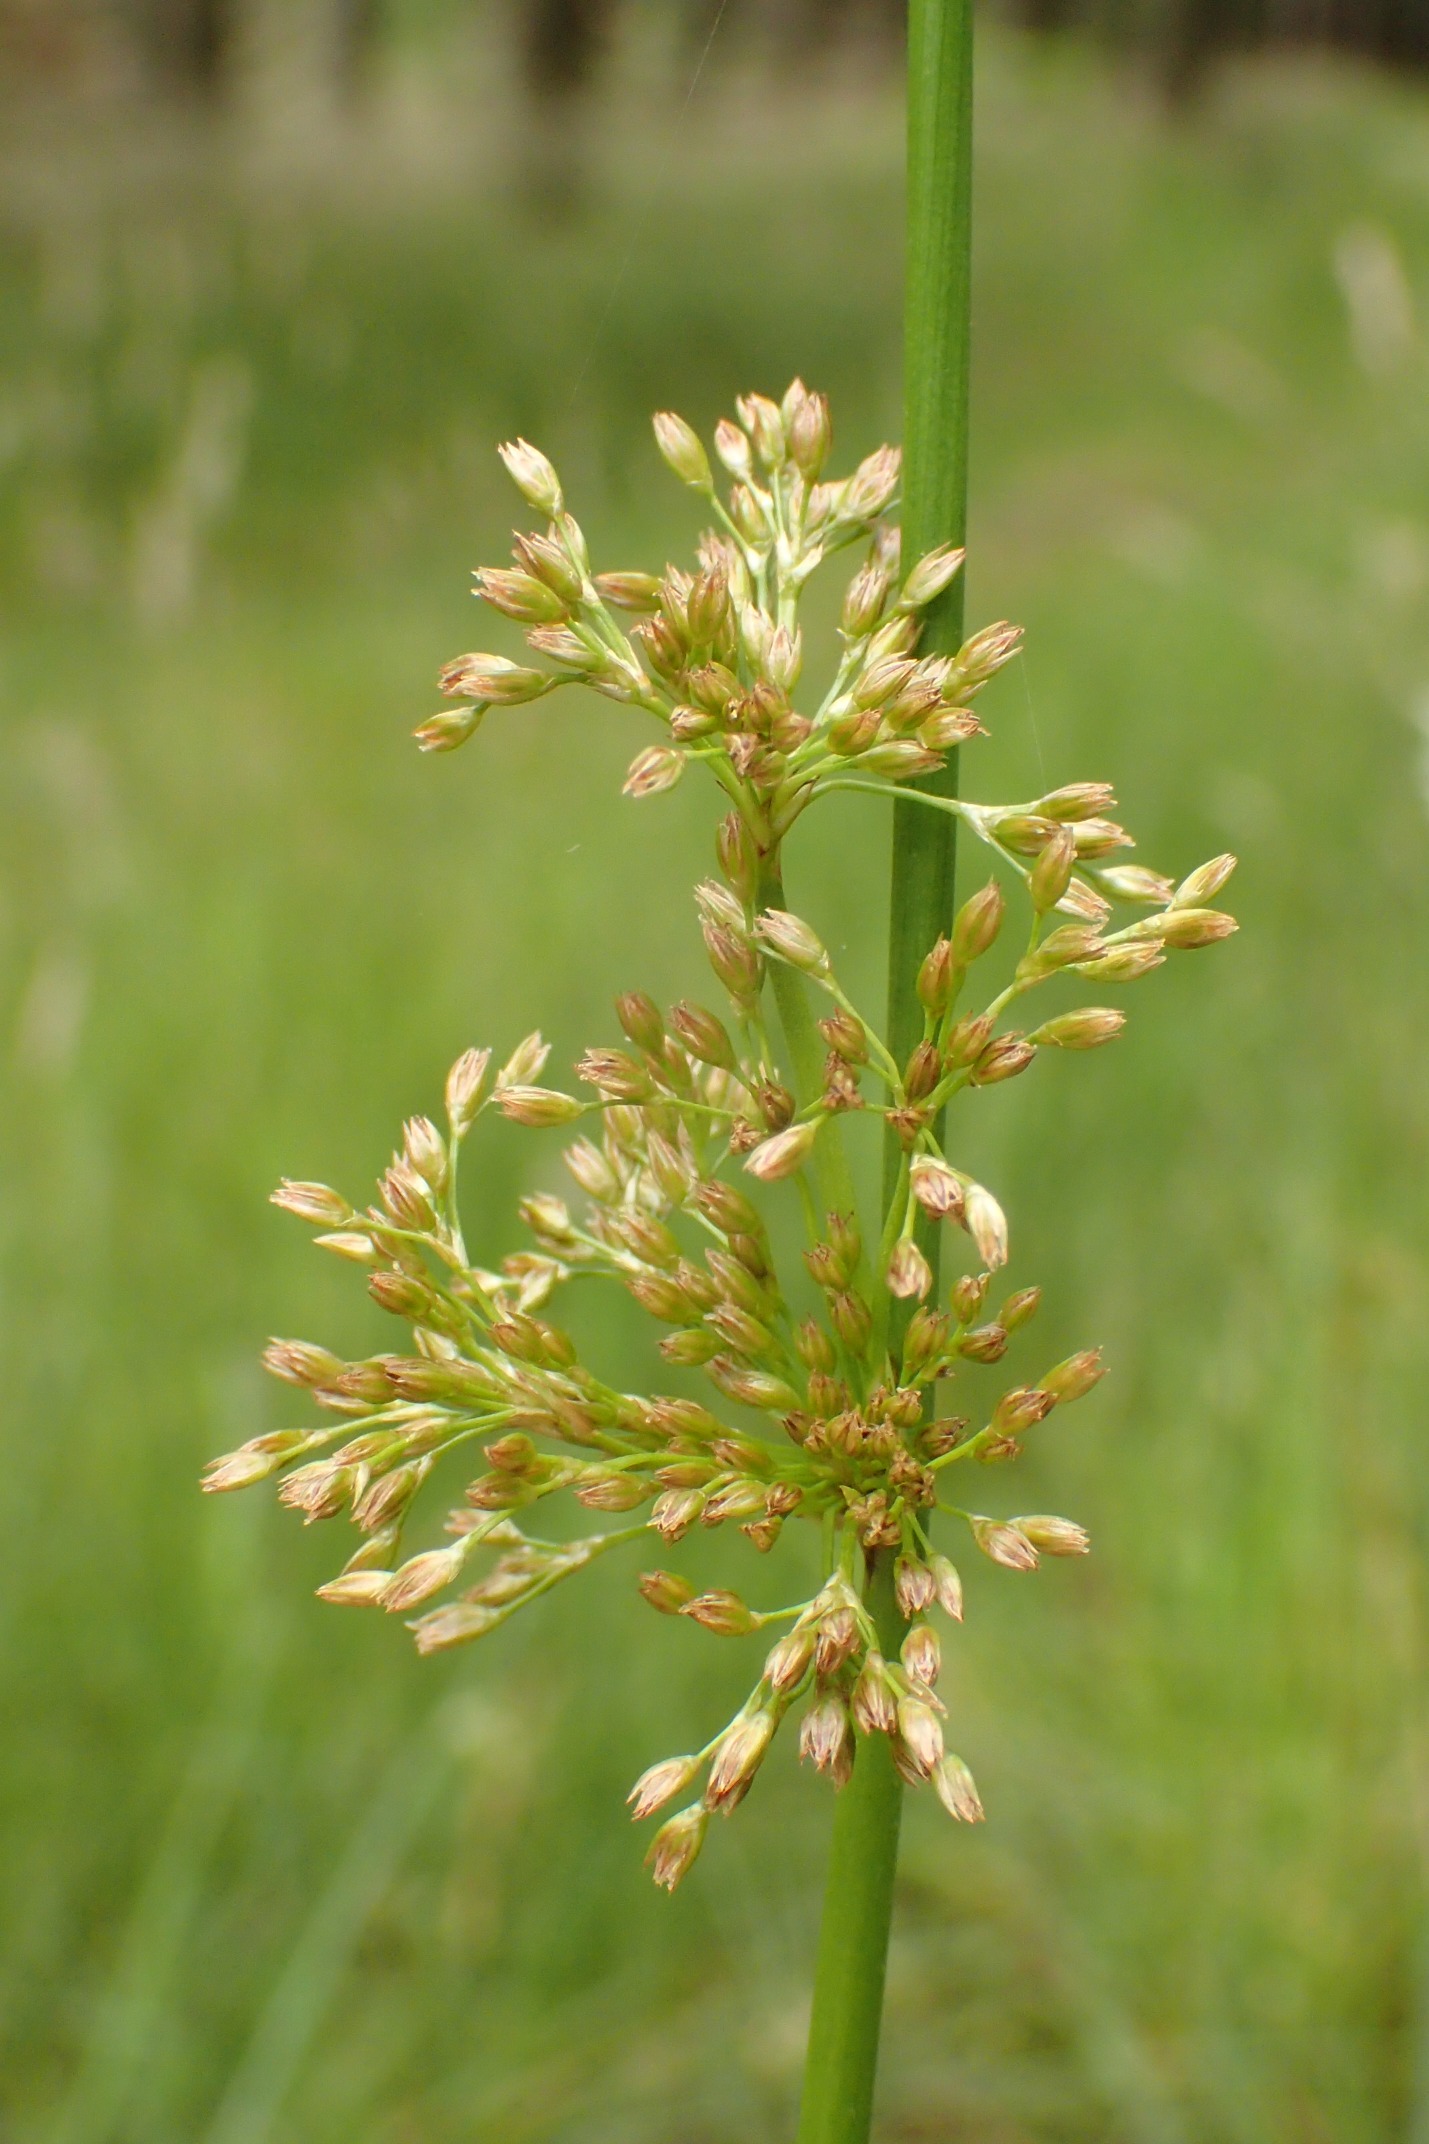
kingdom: Plantae
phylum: Tracheophyta
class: Liliopsida
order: Poales
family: Juncaceae
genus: Juncus
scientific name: Juncus effusus
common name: Lyse-siv
